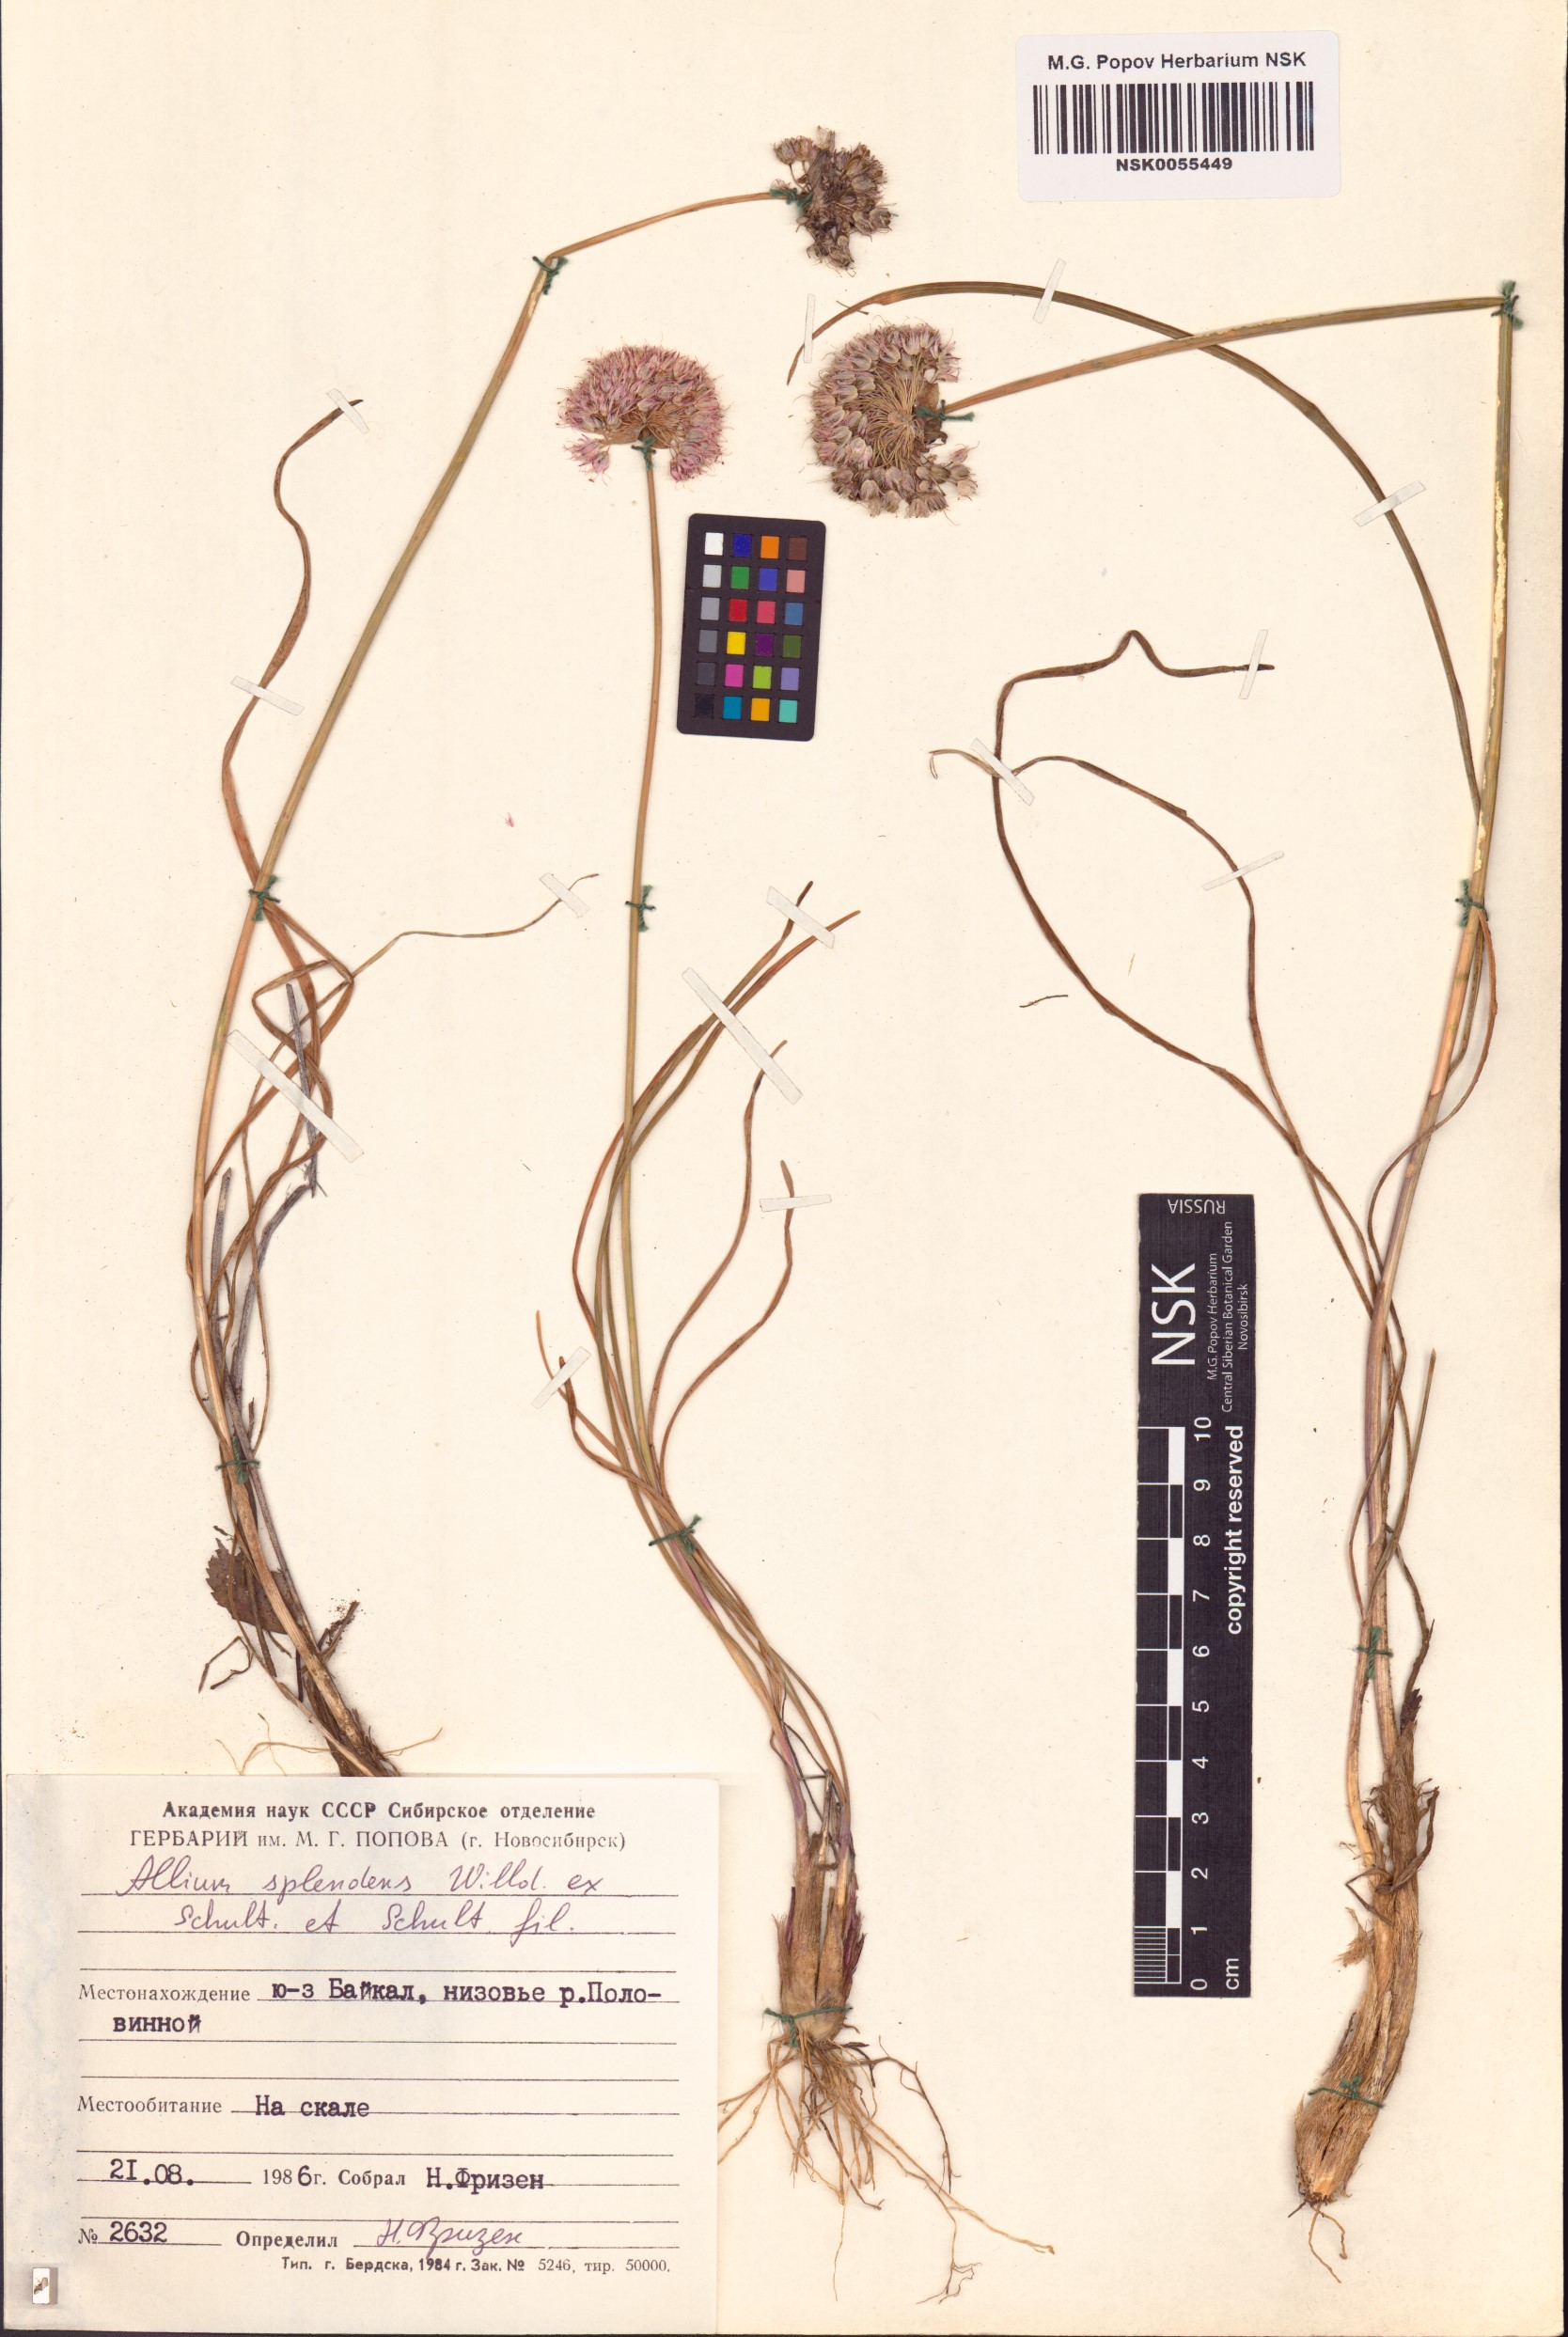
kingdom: Plantae
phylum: Tracheophyta
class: Liliopsida
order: Asparagales
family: Amaryllidaceae
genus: Allium
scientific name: Allium splendens
